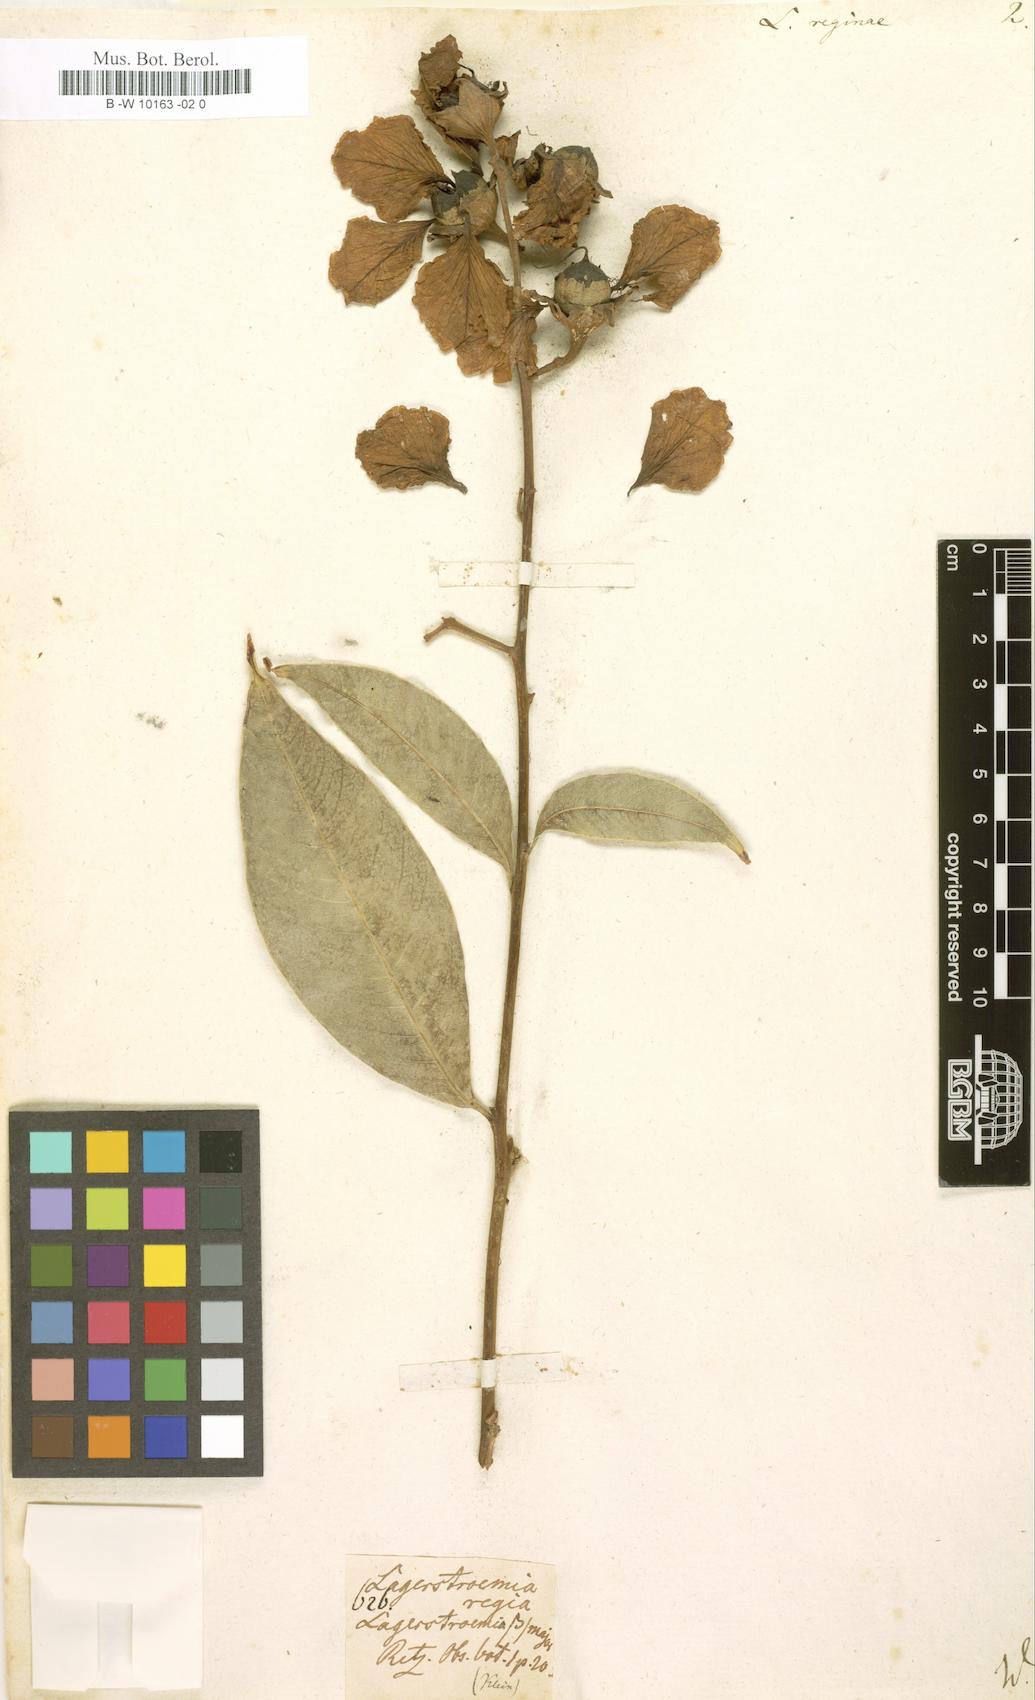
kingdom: Plantae
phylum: Tracheophyta
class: Magnoliopsida
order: Myrtales
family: Lythraceae
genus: Lagerstroemia
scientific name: Lagerstroemia speciosa
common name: Queen's crape-myrtle
